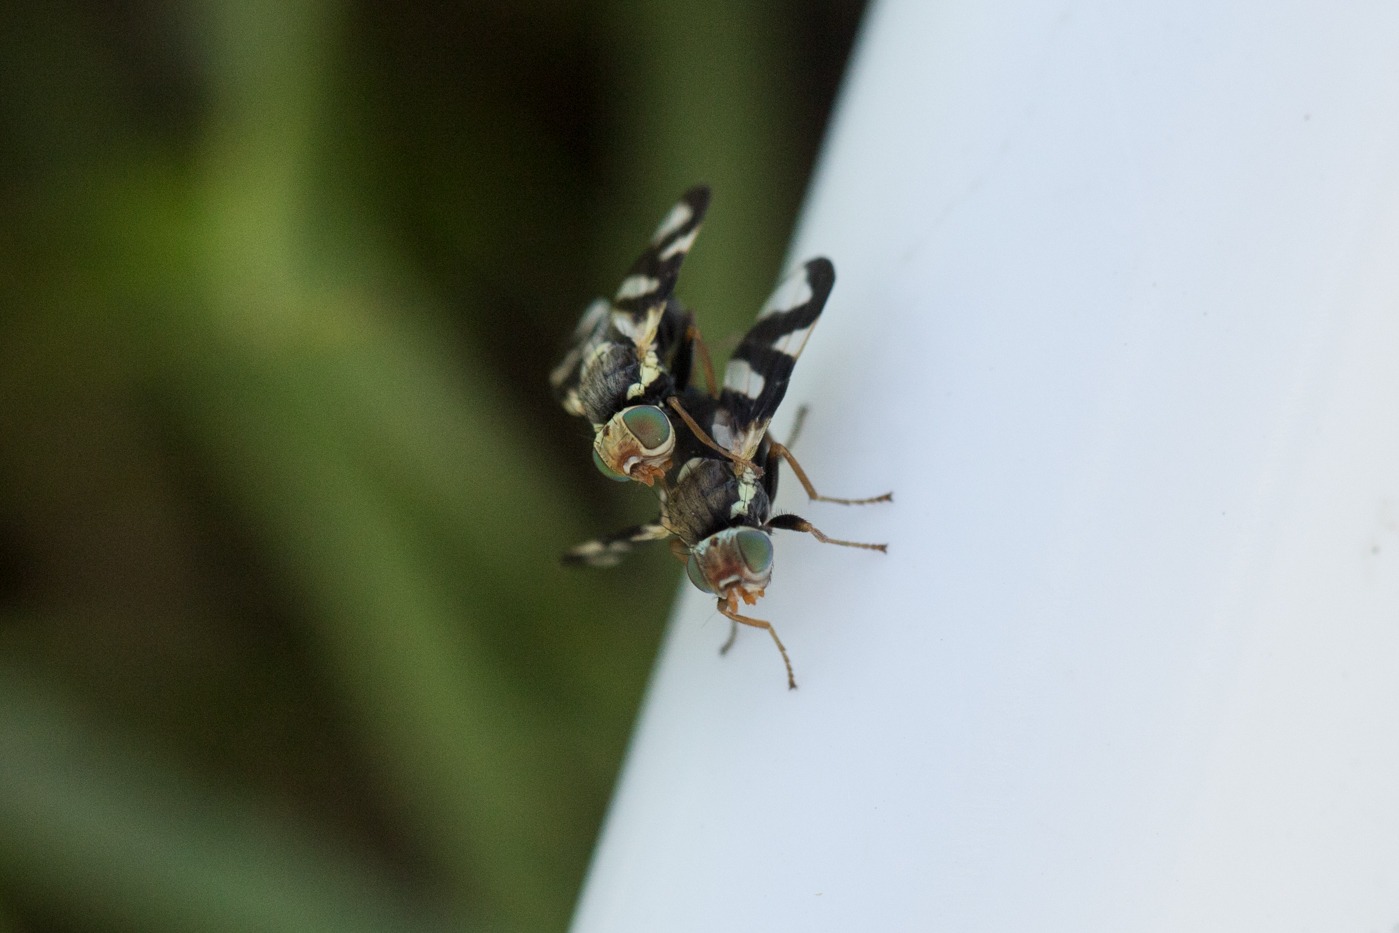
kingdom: Animalia
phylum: Arthropoda
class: Insecta
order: Diptera
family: Tephritidae
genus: Urophora
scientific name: Urophora cardui
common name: Tidselbåndflue
